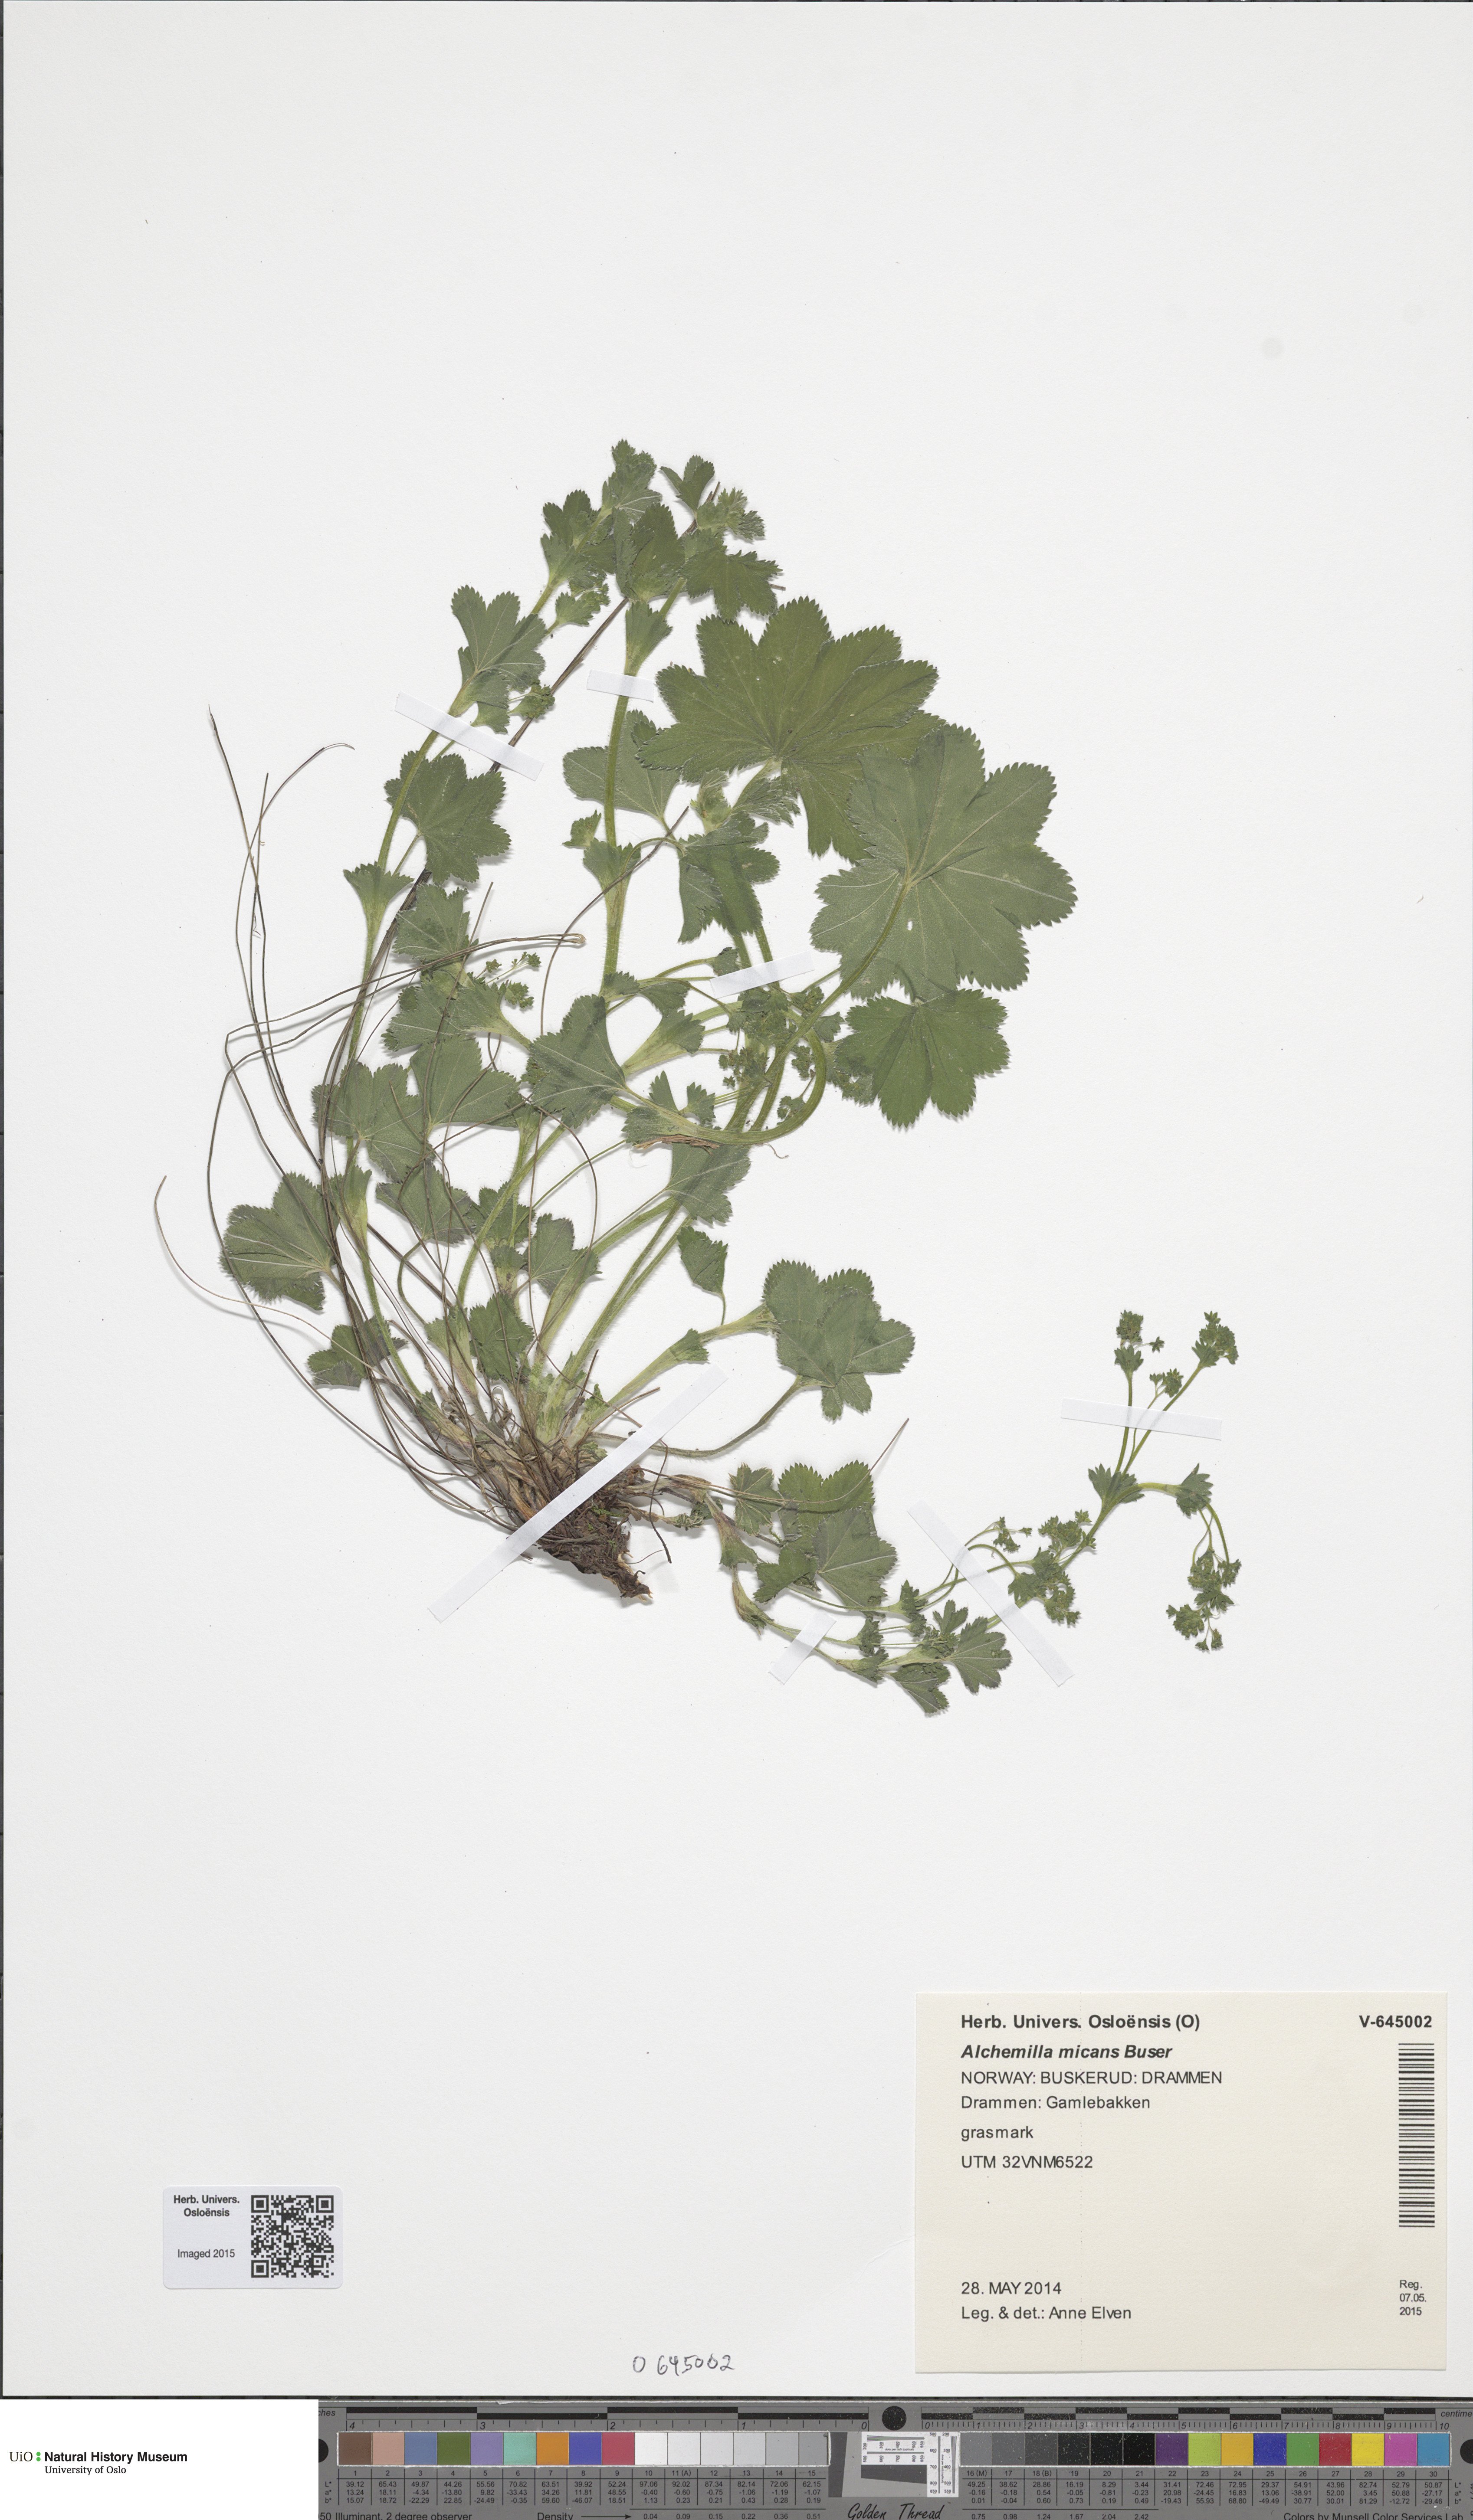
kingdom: Plantae
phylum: Tracheophyta
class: Magnoliopsida
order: Rosales
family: Rosaceae
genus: Alchemilla
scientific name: Alchemilla micans
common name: Gleaming lady's mantle
